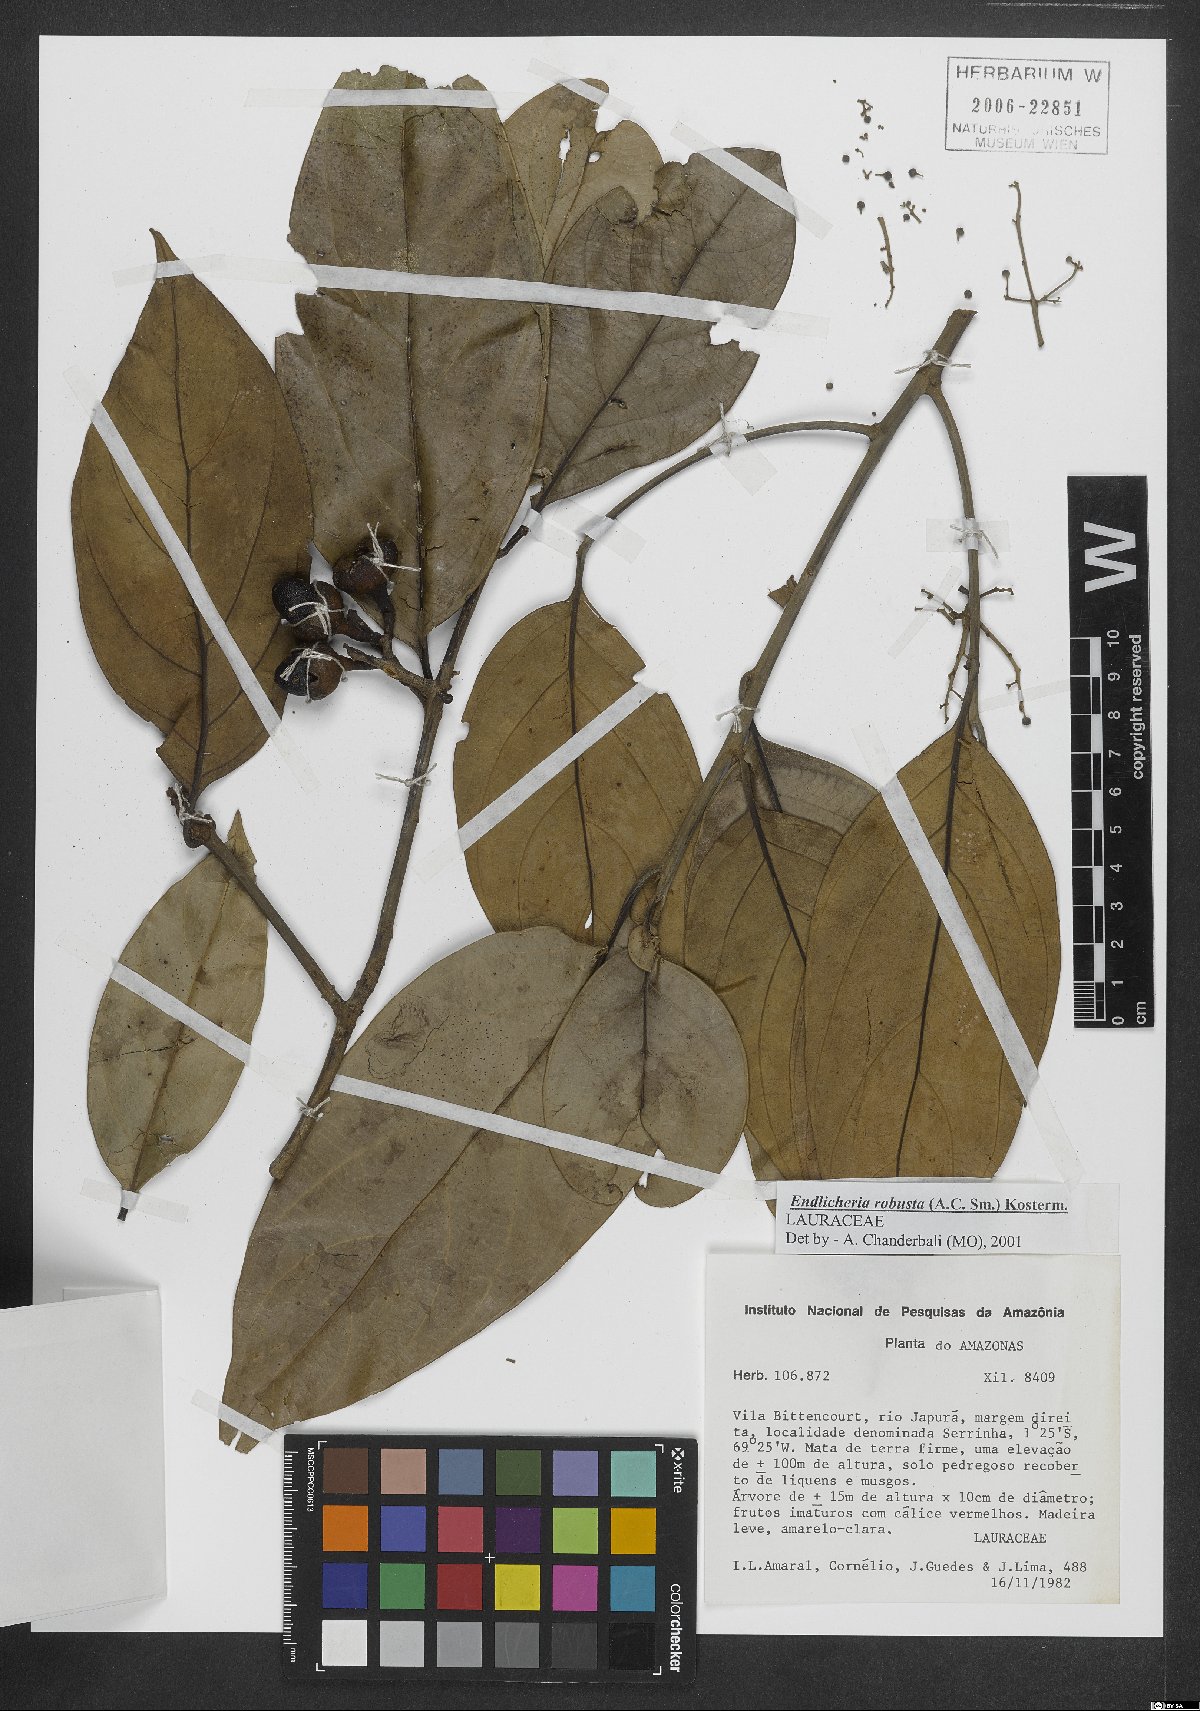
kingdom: Plantae
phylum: Tracheophyta
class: Magnoliopsida
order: Laurales
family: Lauraceae
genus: Endlicheria
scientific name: Endlicheria robusta
